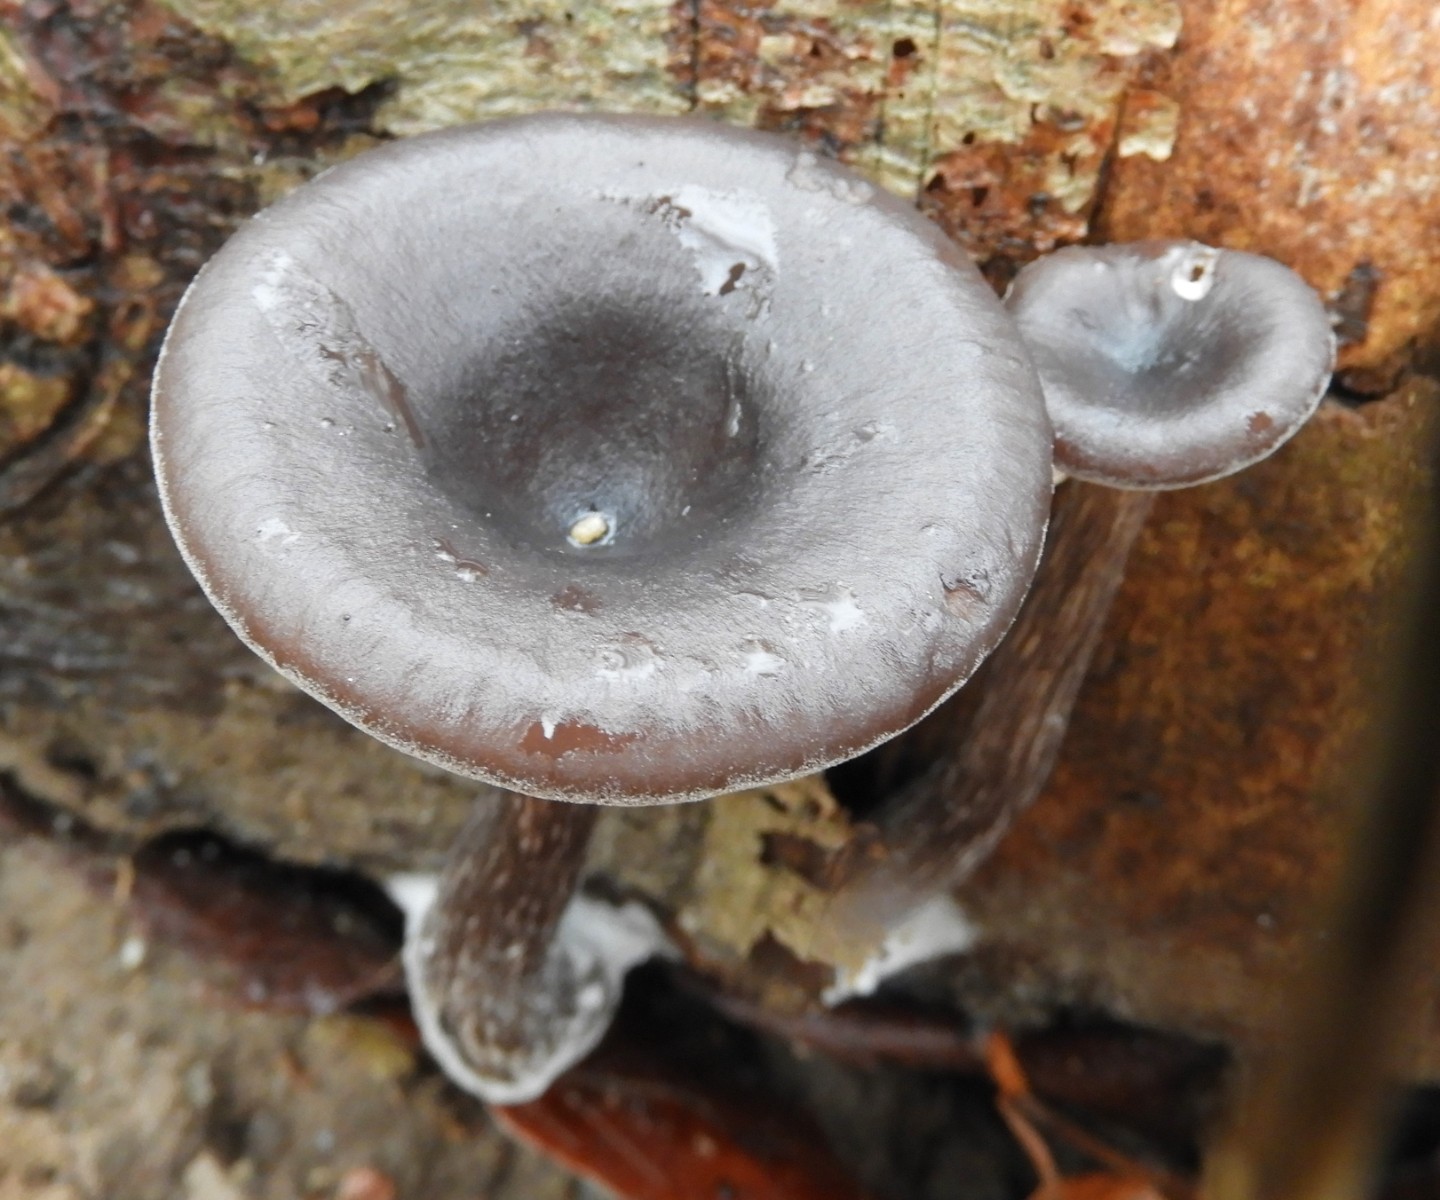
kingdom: Fungi
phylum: Basidiomycota
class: Agaricomycetes
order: Agaricales
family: Pseudoclitocybaceae
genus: Pseudoclitocybe
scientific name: Pseudoclitocybe cyathiformis
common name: almindelig bægertragthat
